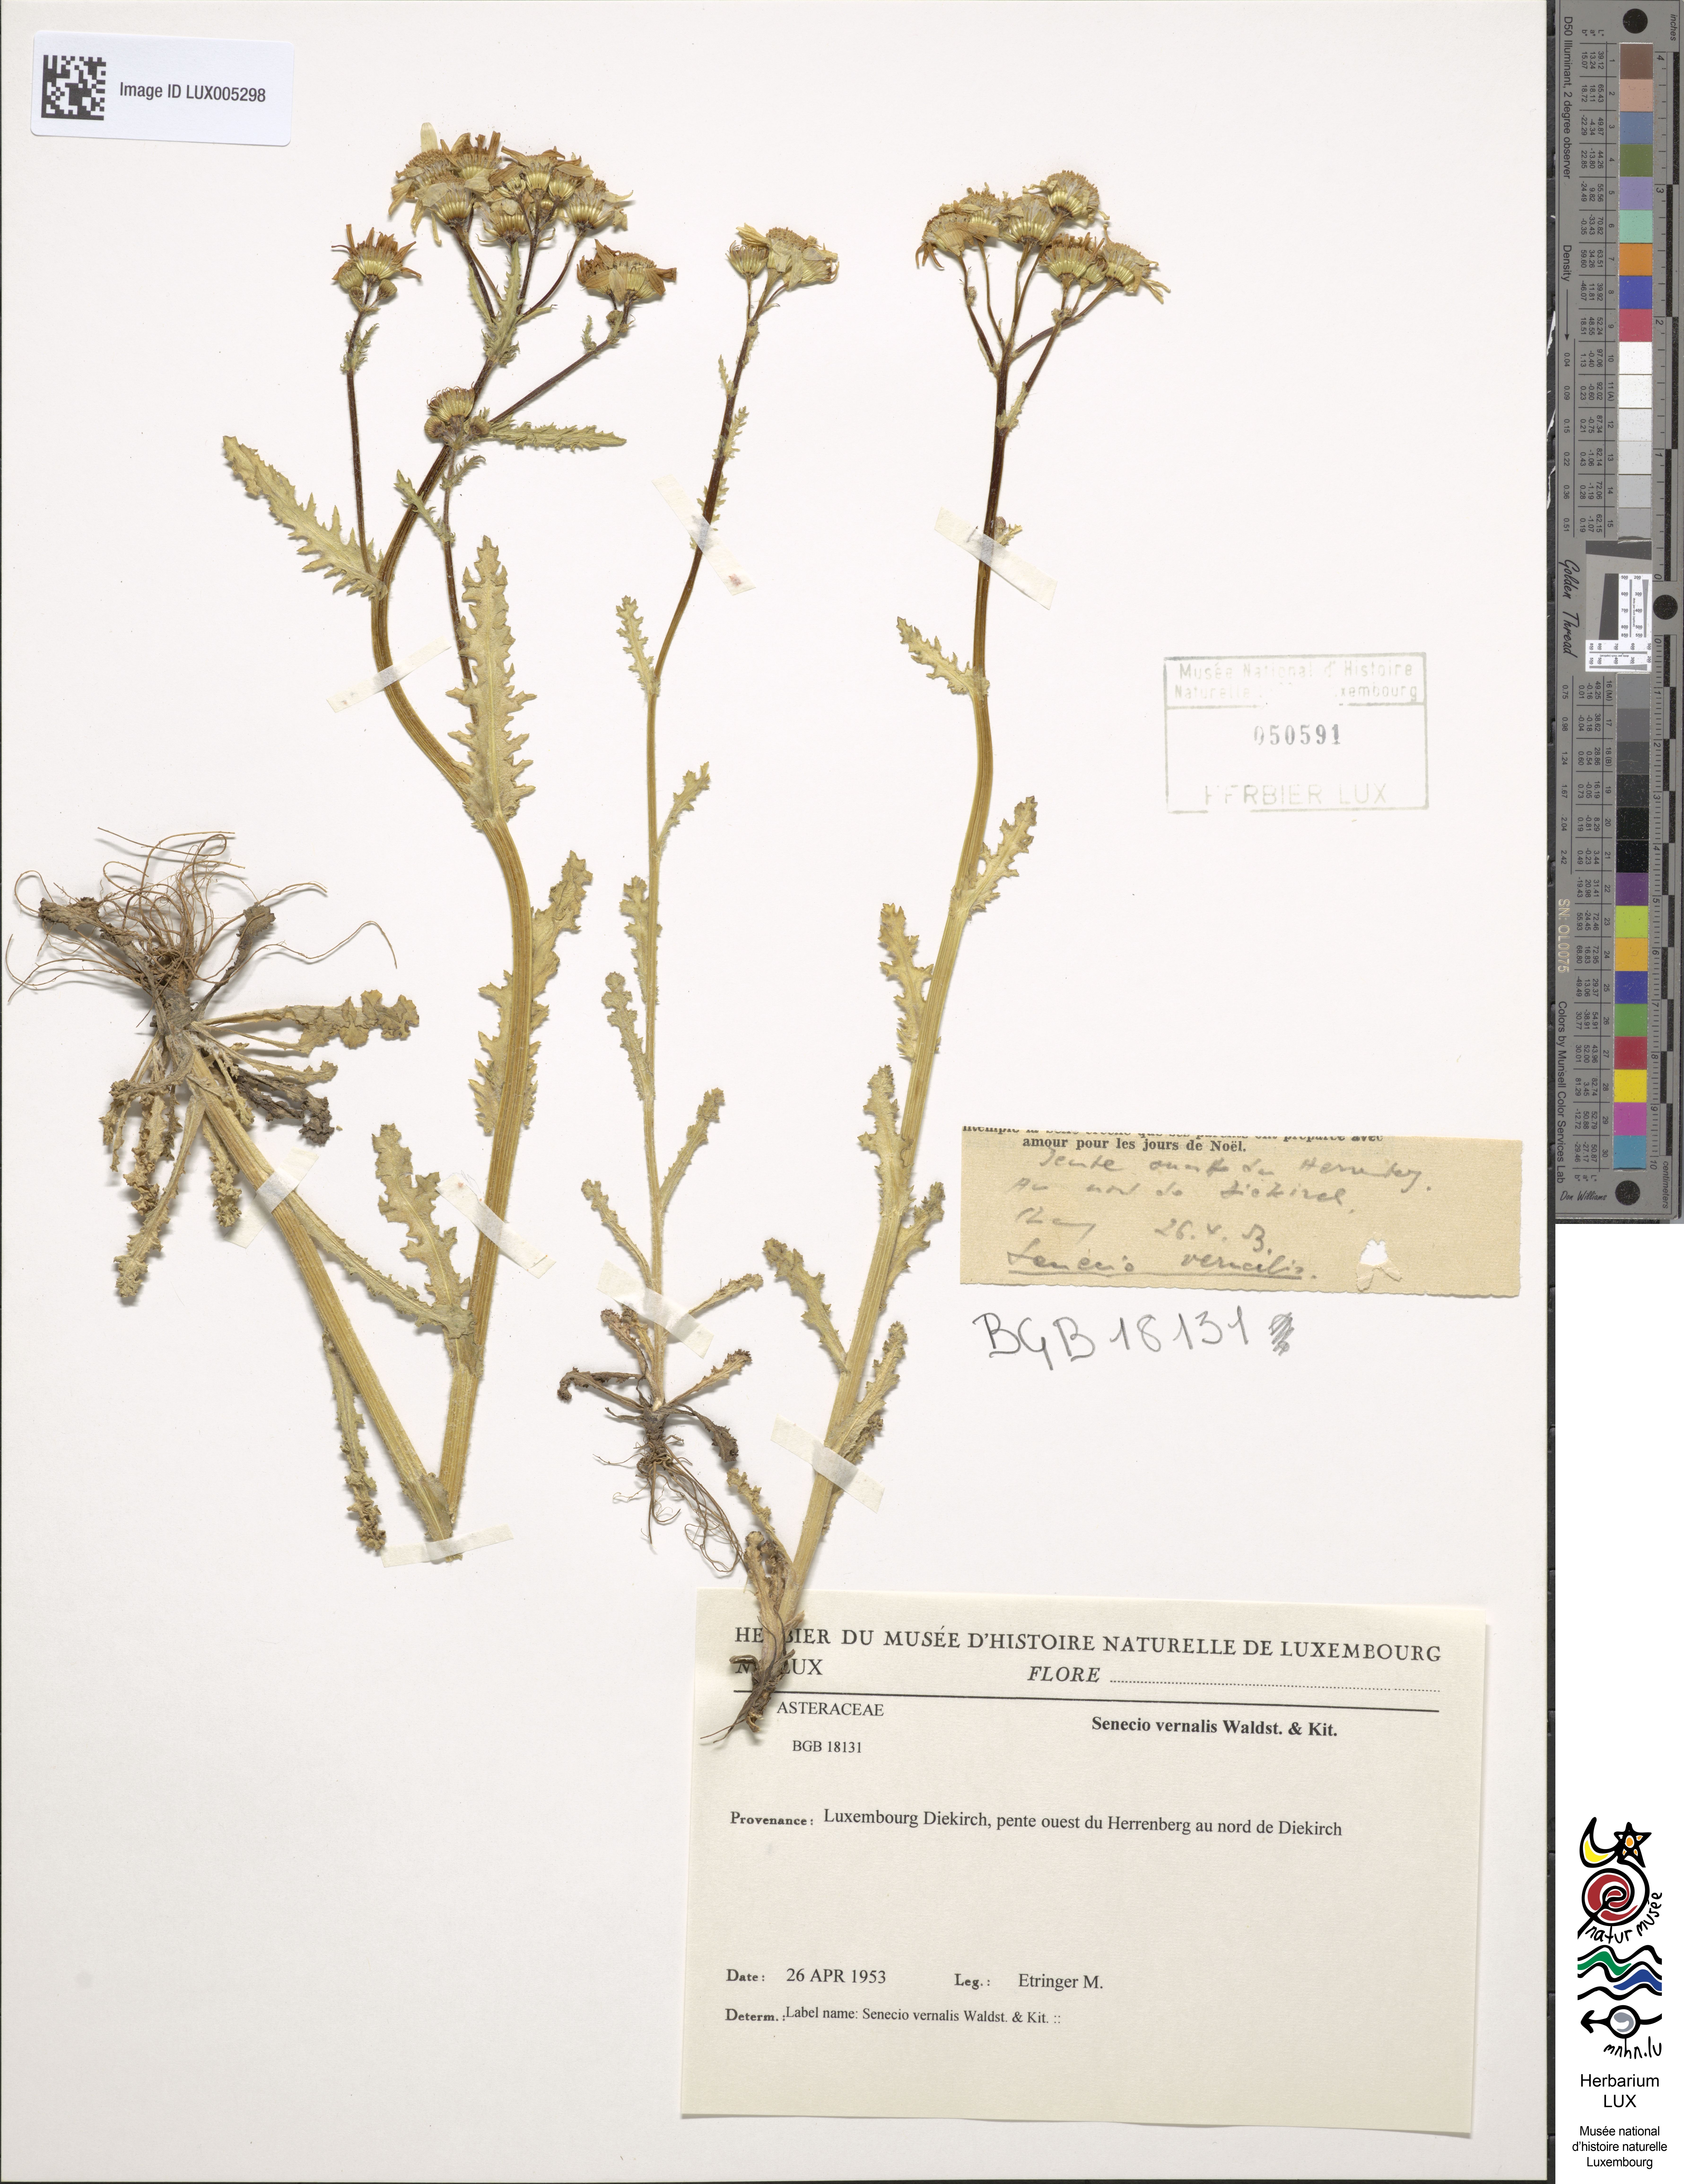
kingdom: Plantae
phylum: Tracheophyta
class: Magnoliopsida
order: Asterales
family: Asteraceae
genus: Senecio
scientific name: Senecio vernalis
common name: Eastern groundsel
